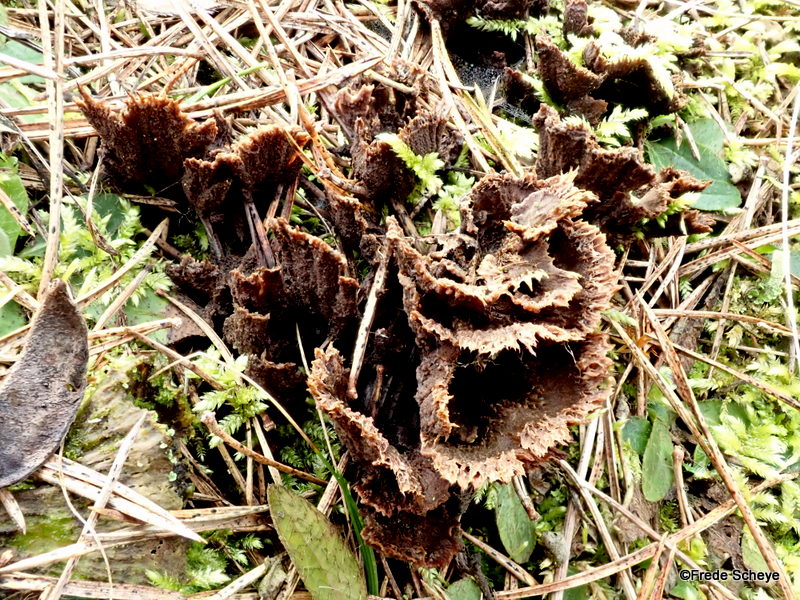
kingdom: Fungi
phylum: Basidiomycota
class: Agaricomycetes
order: Thelephorales
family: Thelephoraceae
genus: Thelephora
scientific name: Thelephora terrestris
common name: fliget frynsesvamp
